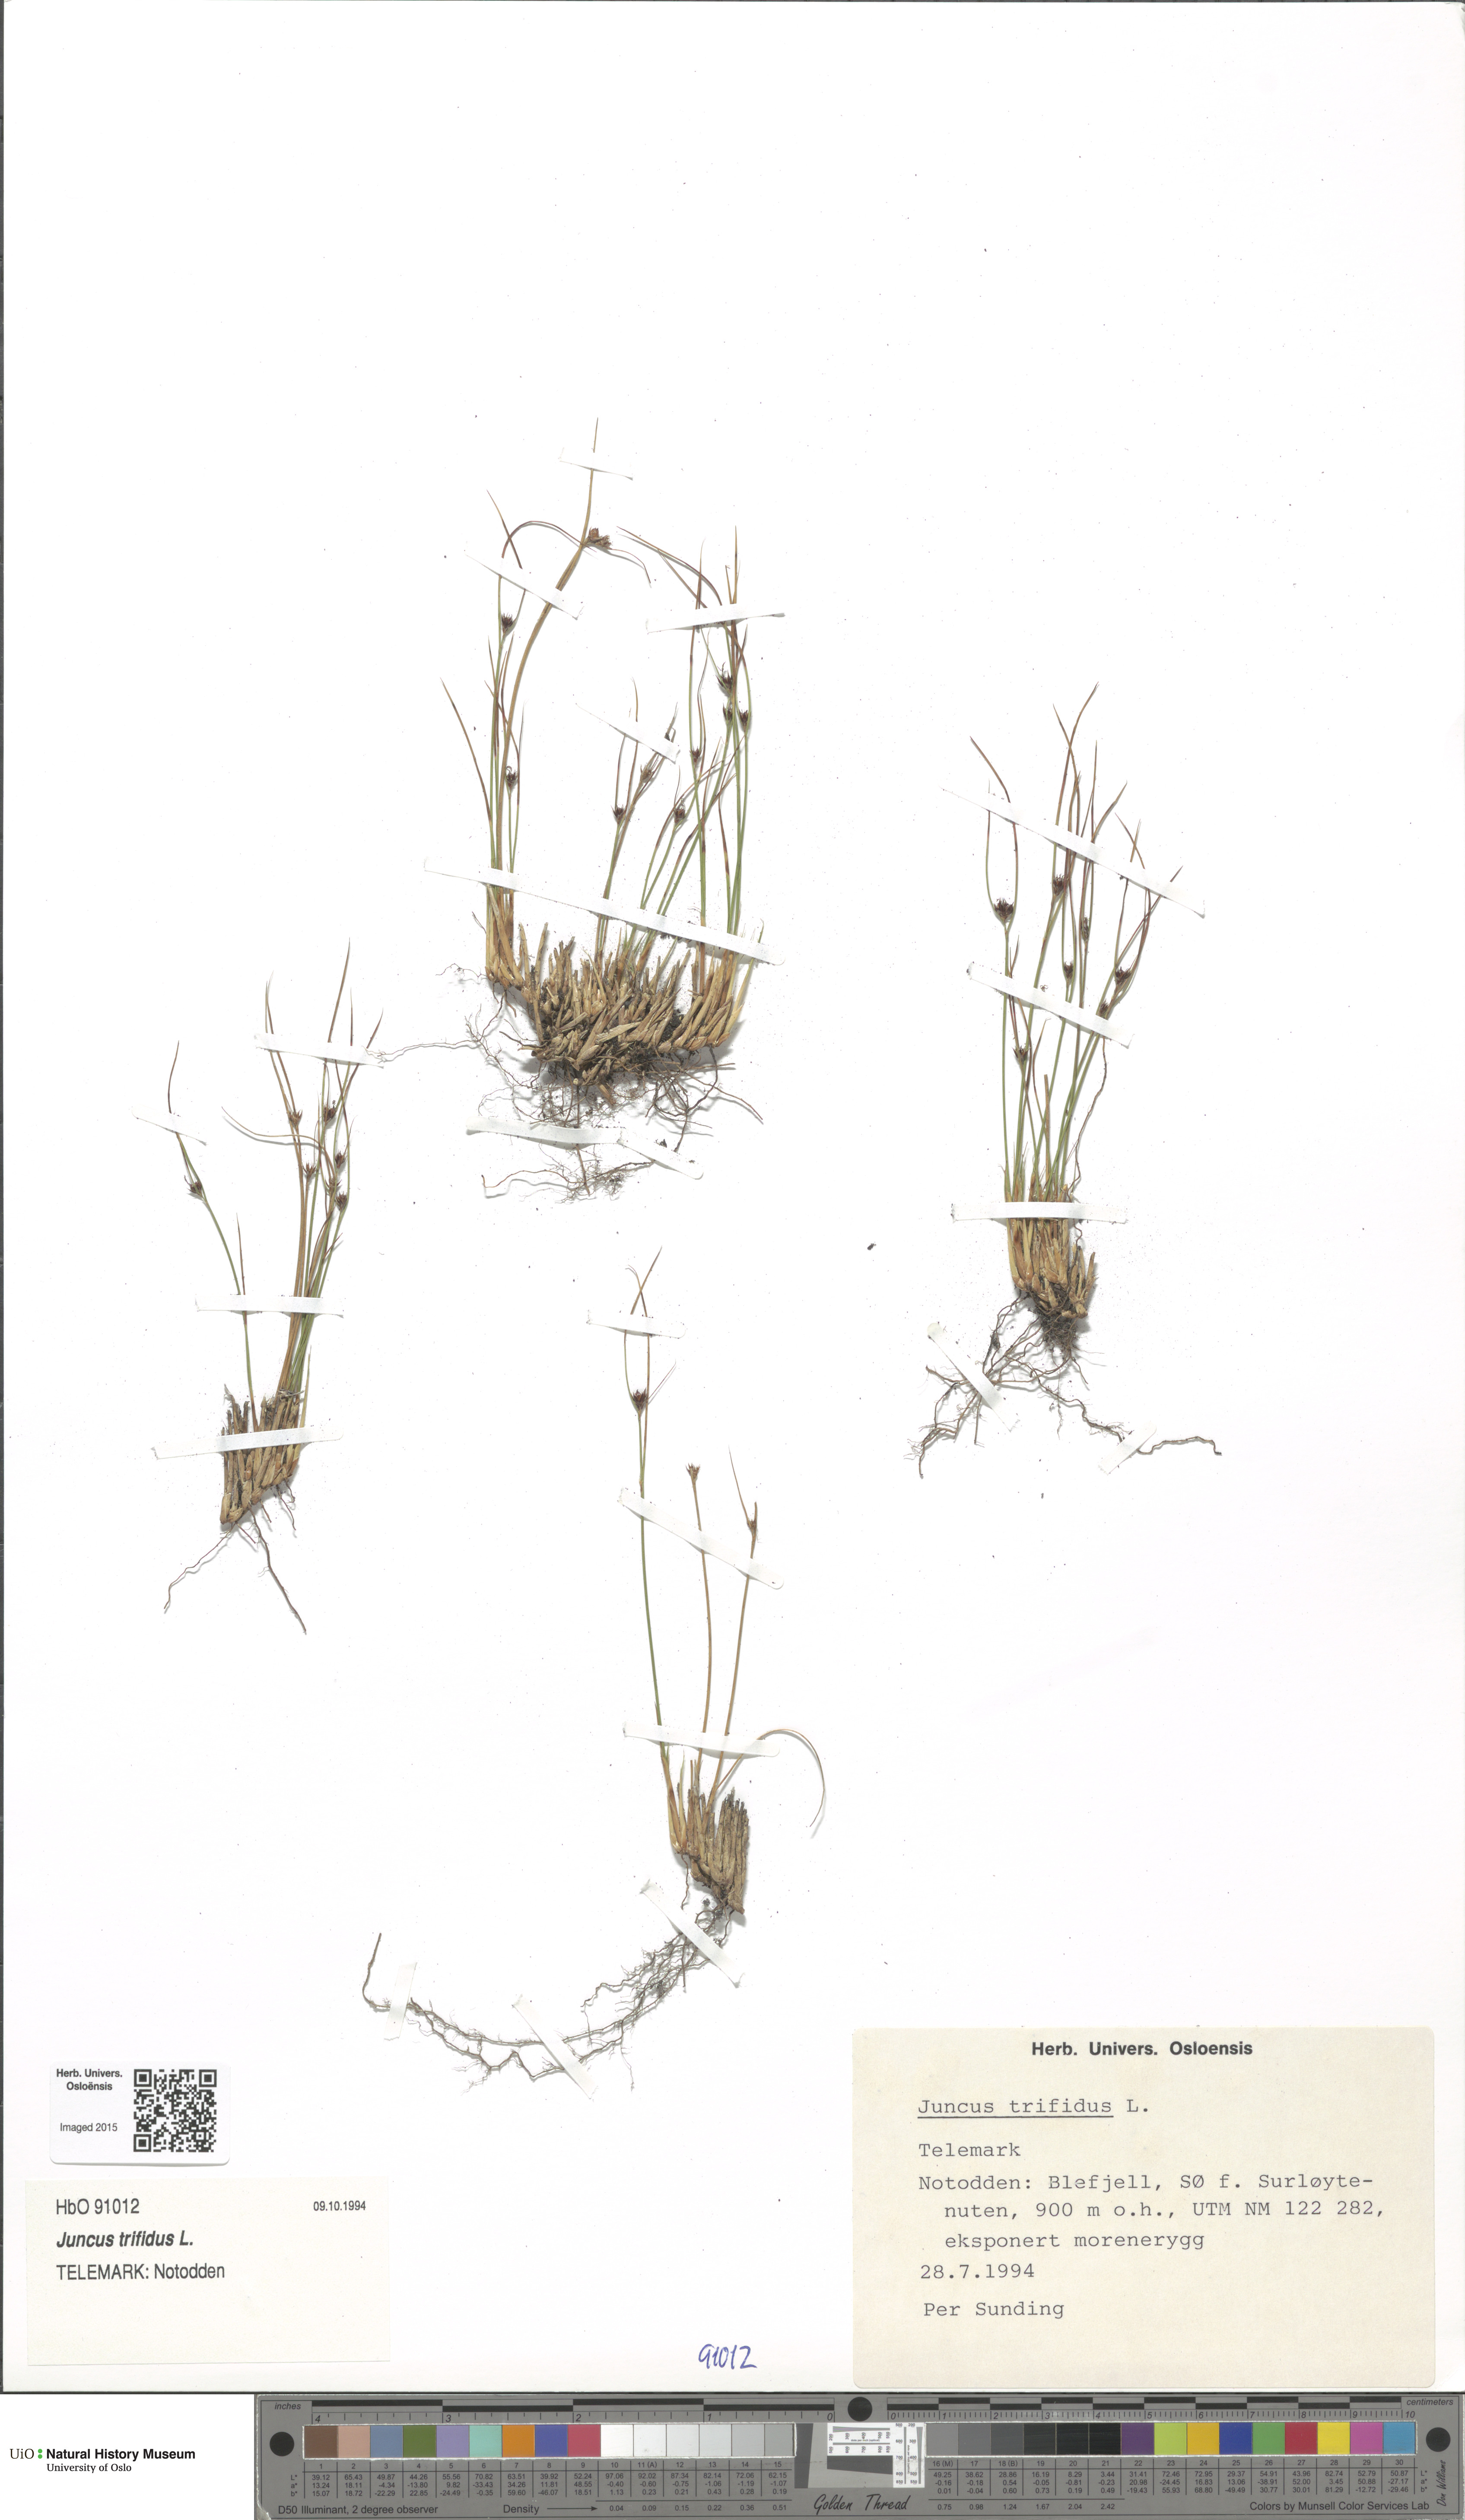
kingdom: Plantae
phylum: Tracheophyta
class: Liliopsida
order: Poales
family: Juncaceae
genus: Oreojuncus
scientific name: Oreojuncus trifidus
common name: Highland rush
